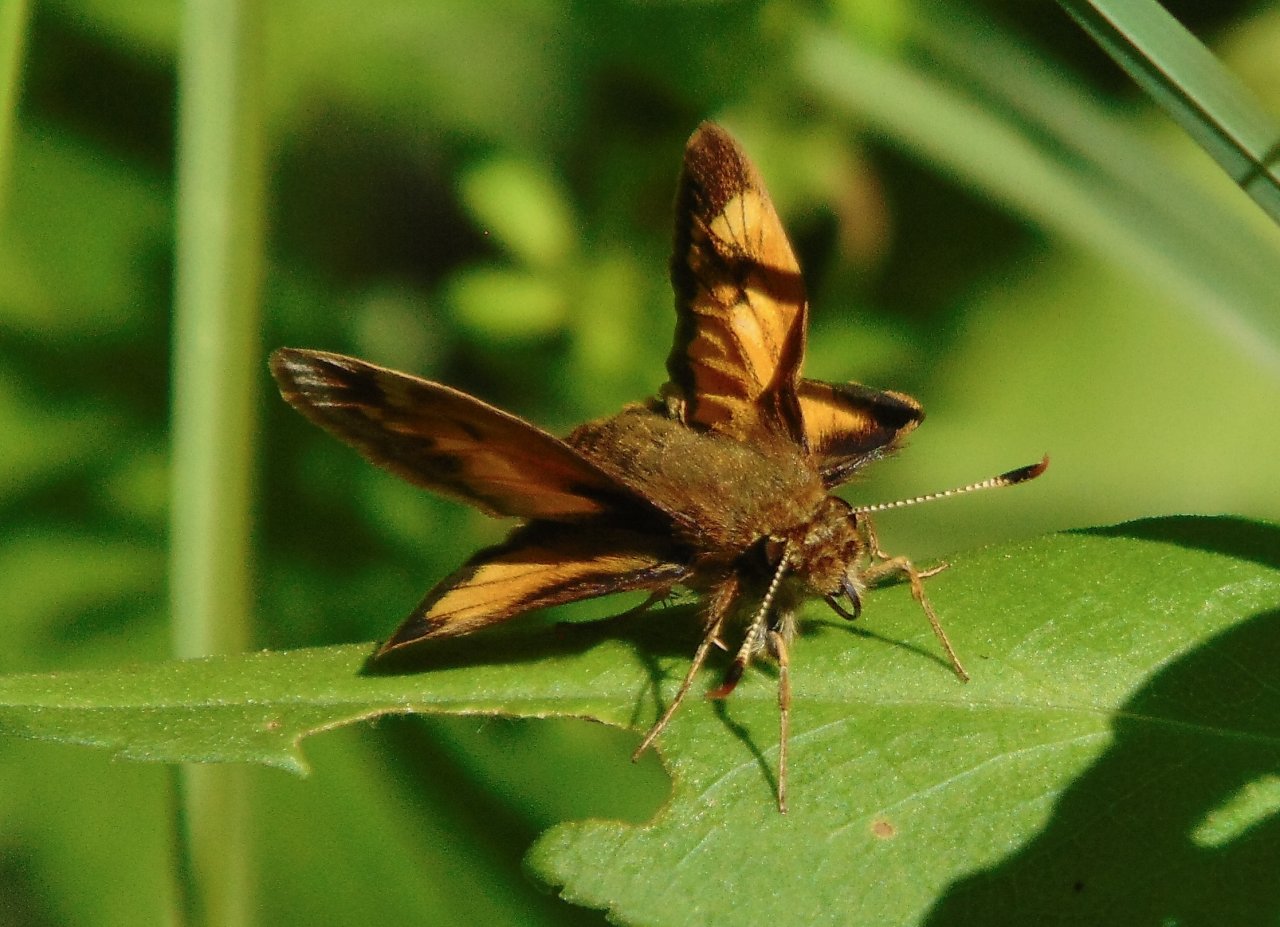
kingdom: Animalia
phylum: Arthropoda
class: Insecta
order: Lepidoptera
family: Hesperiidae
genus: Lon
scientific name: Lon hobomok
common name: Hobomok Skipper
